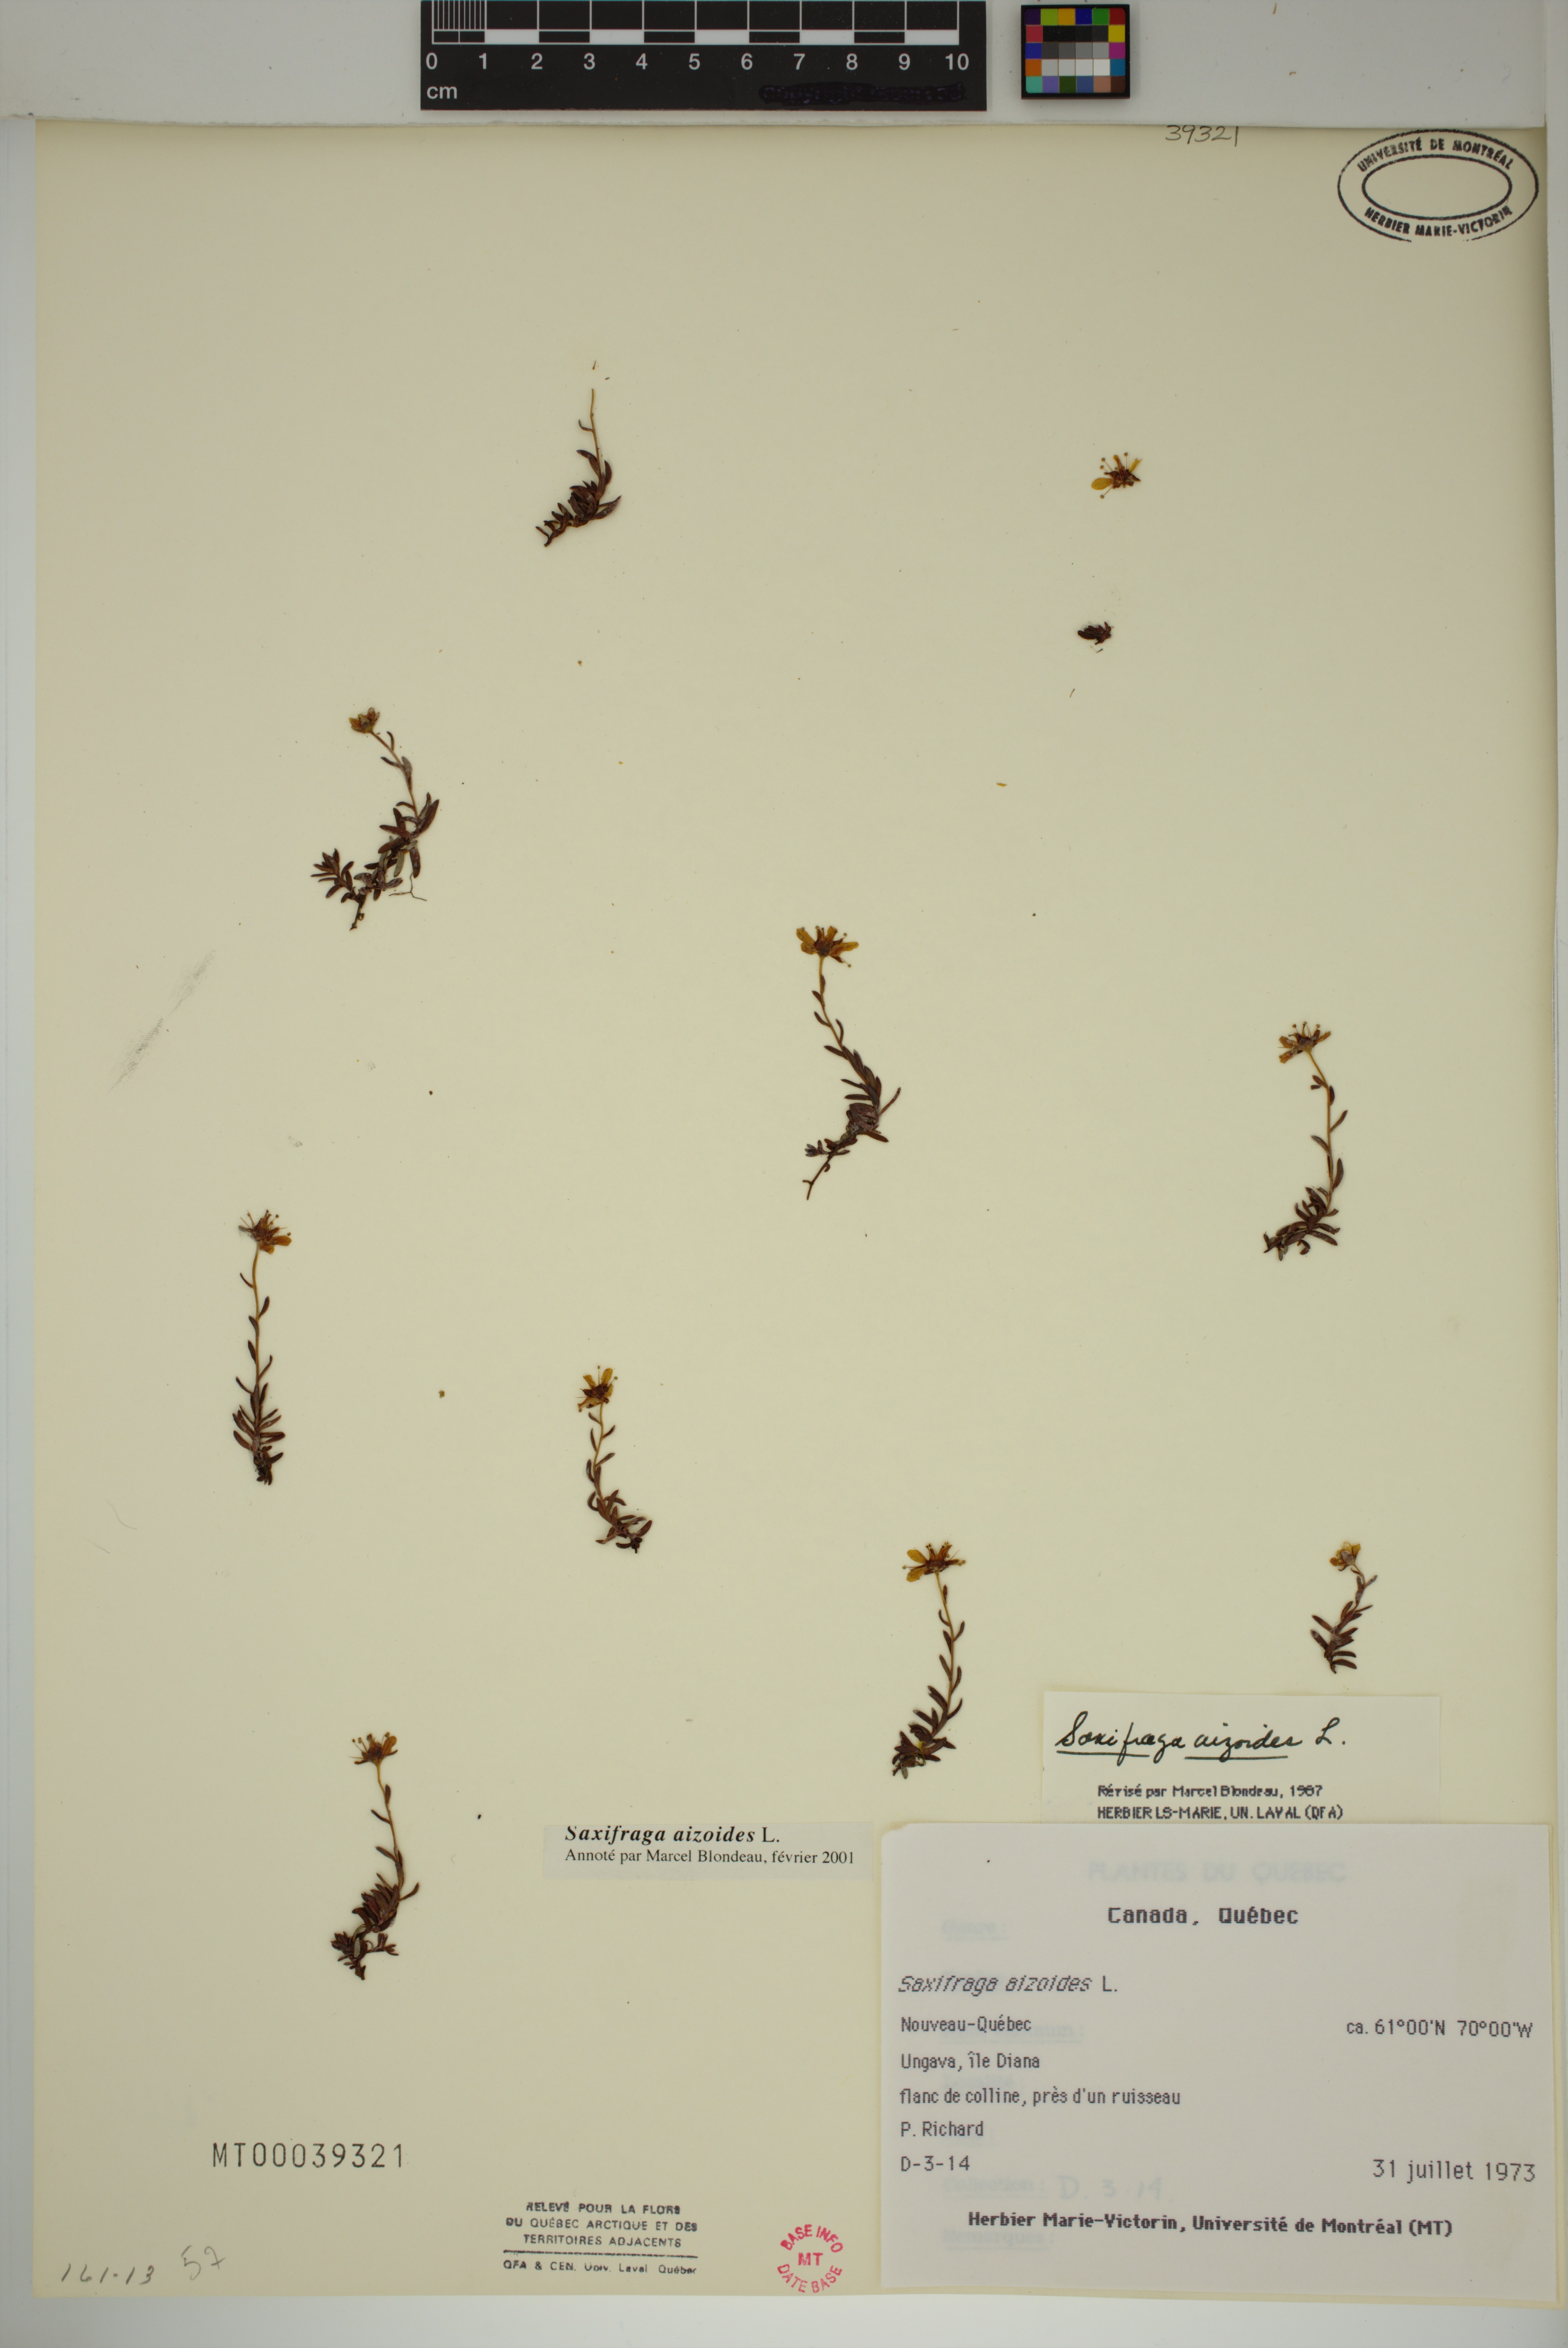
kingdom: Plantae
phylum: Tracheophyta
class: Magnoliopsida
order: Saxifragales
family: Saxifragaceae
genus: Saxifraga
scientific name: Saxifraga aizoides
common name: Yellow mountain saxifrage
